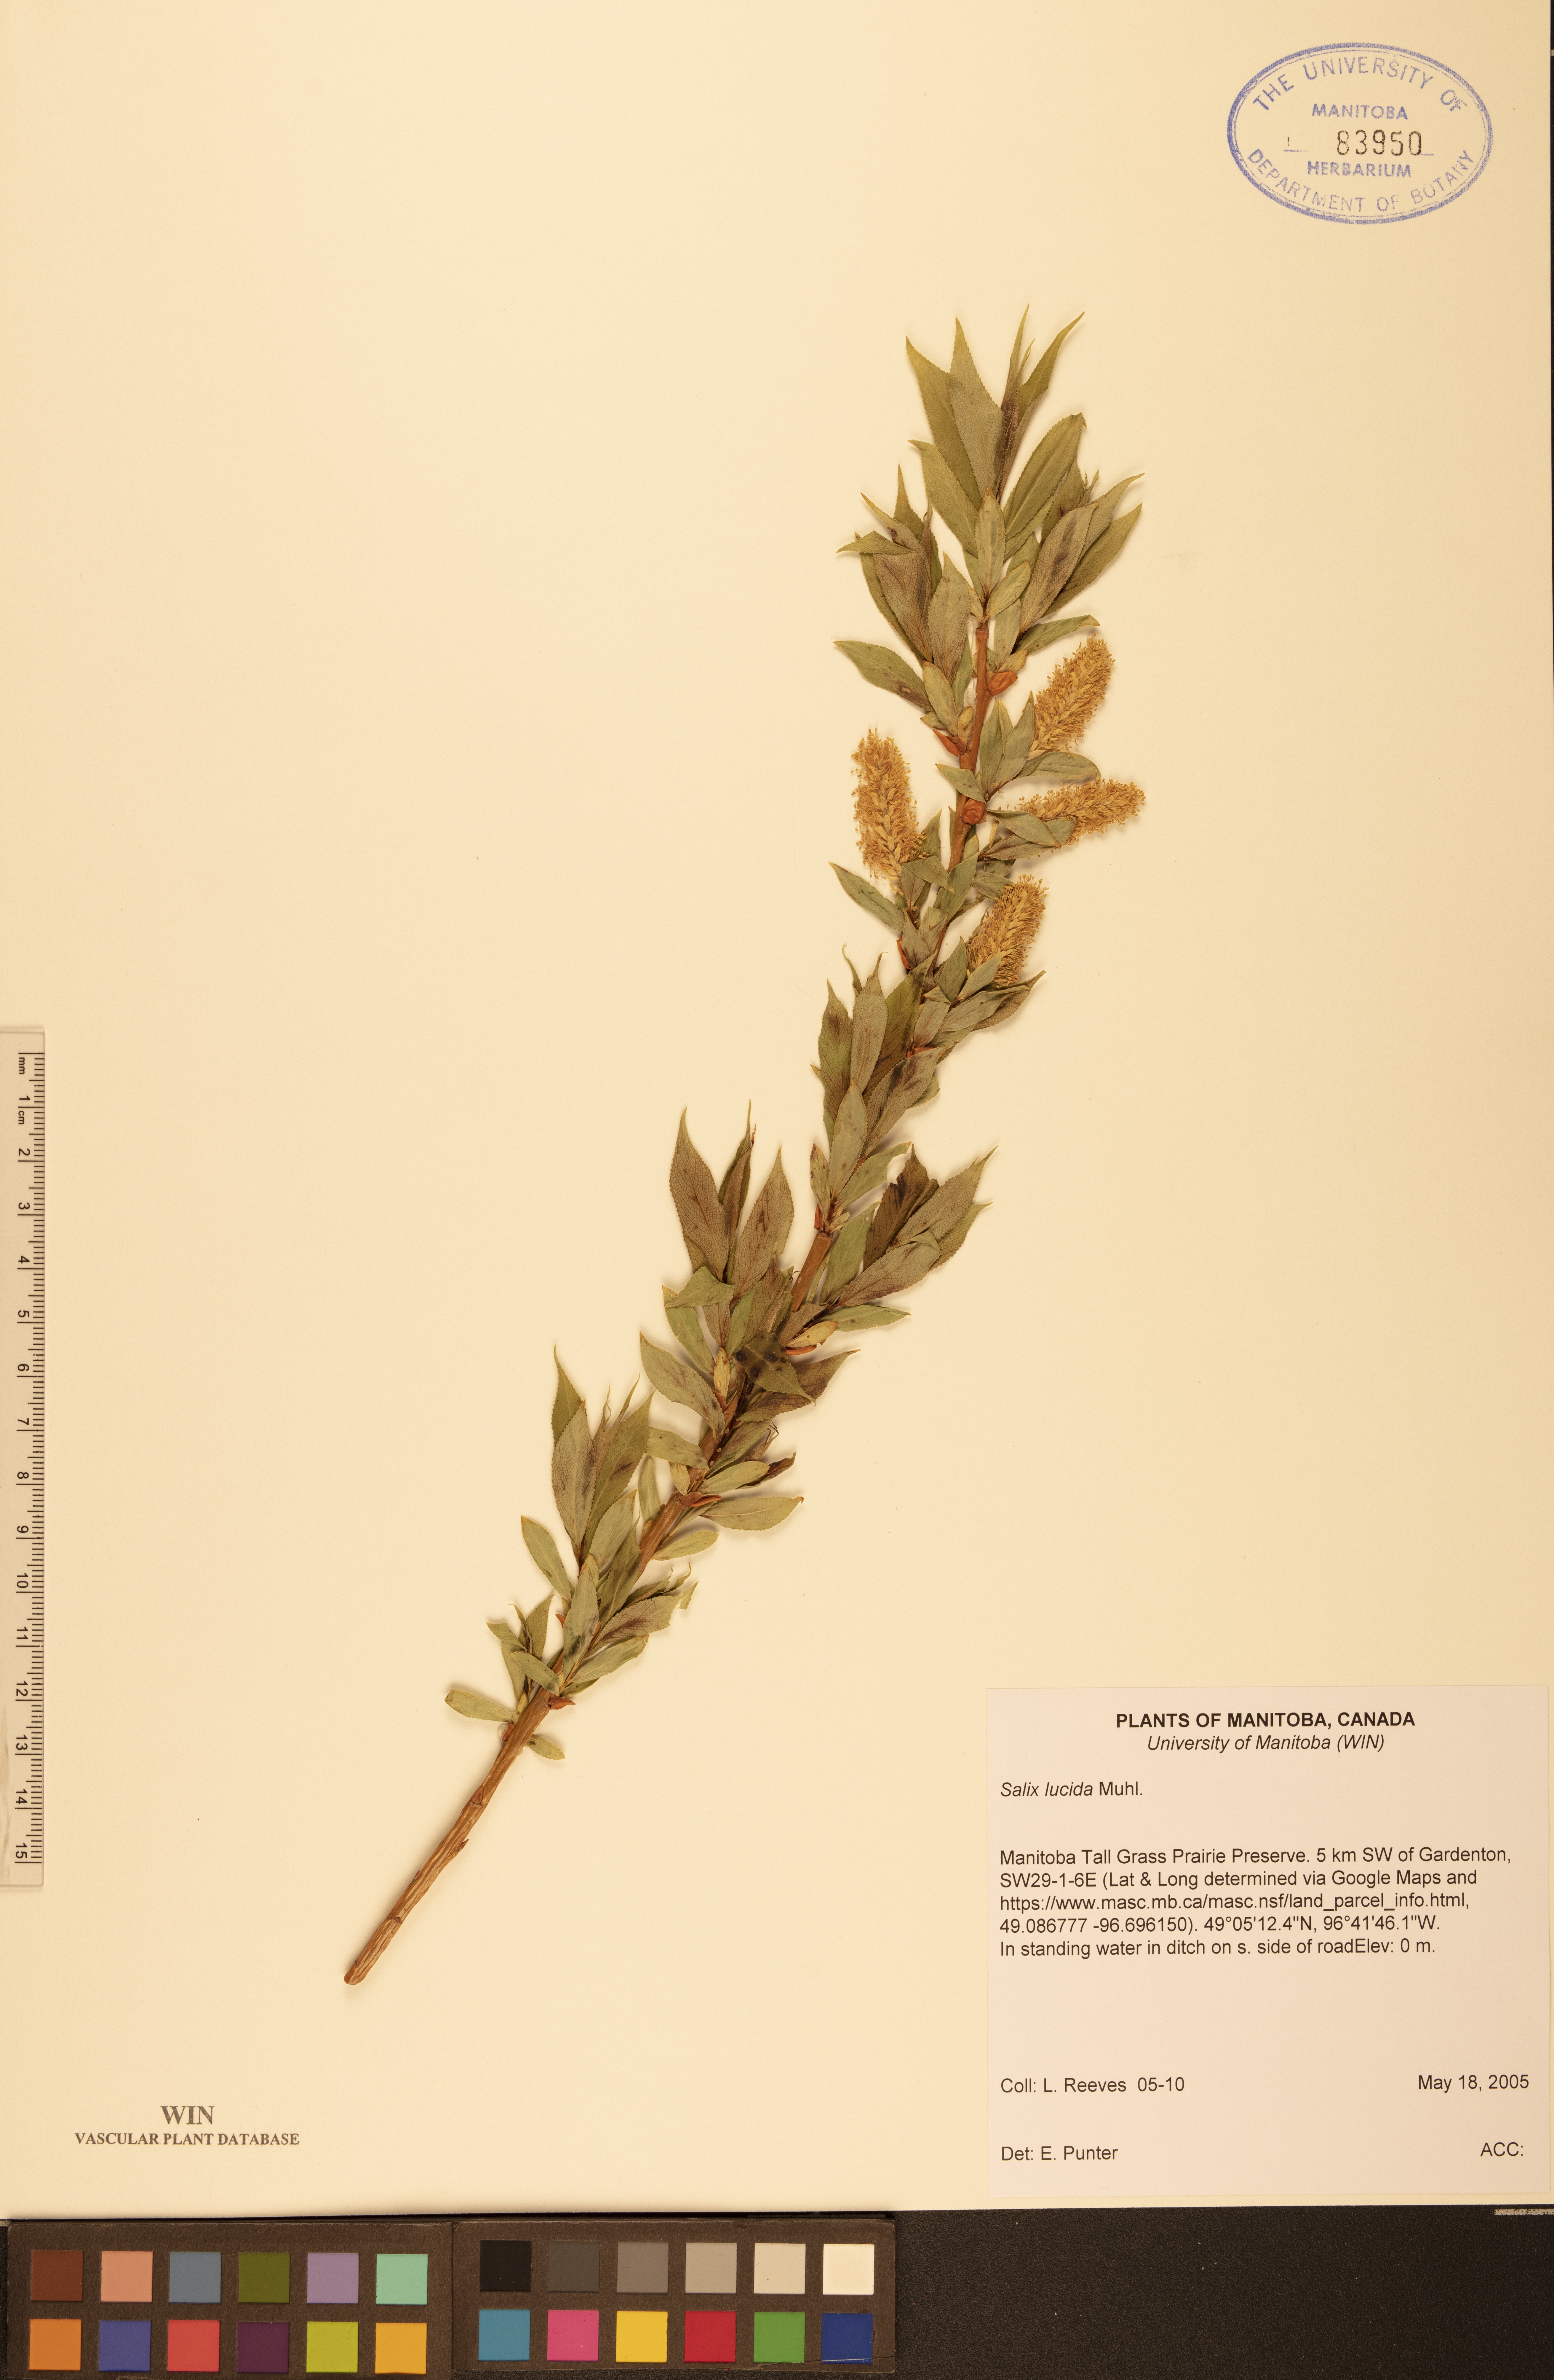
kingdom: Plantae
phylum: Tracheophyta
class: Magnoliopsida
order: Malpighiales
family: Salicaceae
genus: Salix
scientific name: Salix lucida
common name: Shining willow
